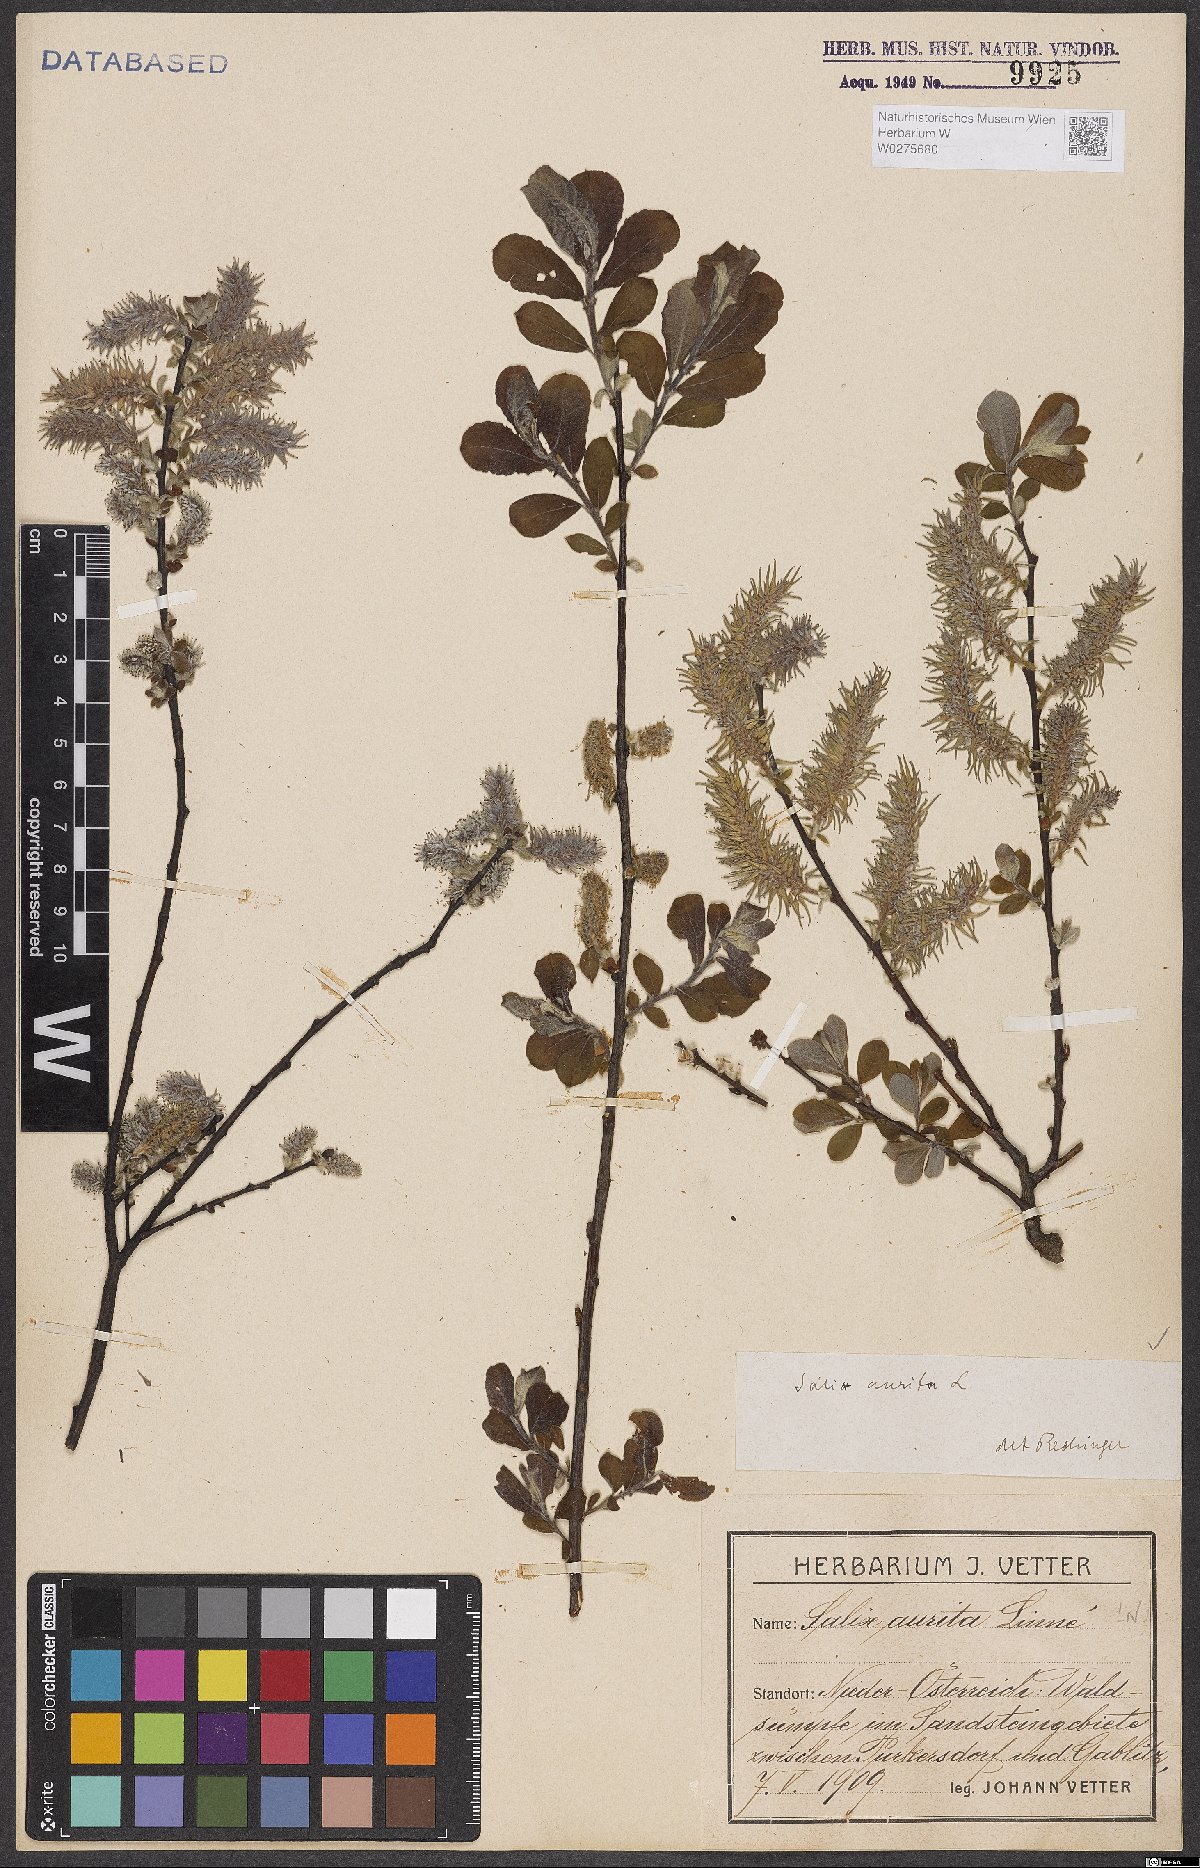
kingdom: Plantae
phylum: Tracheophyta
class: Magnoliopsida
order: Malpighiales
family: Salicaceae
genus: Salix
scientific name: Salix aurita
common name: Eared willow
